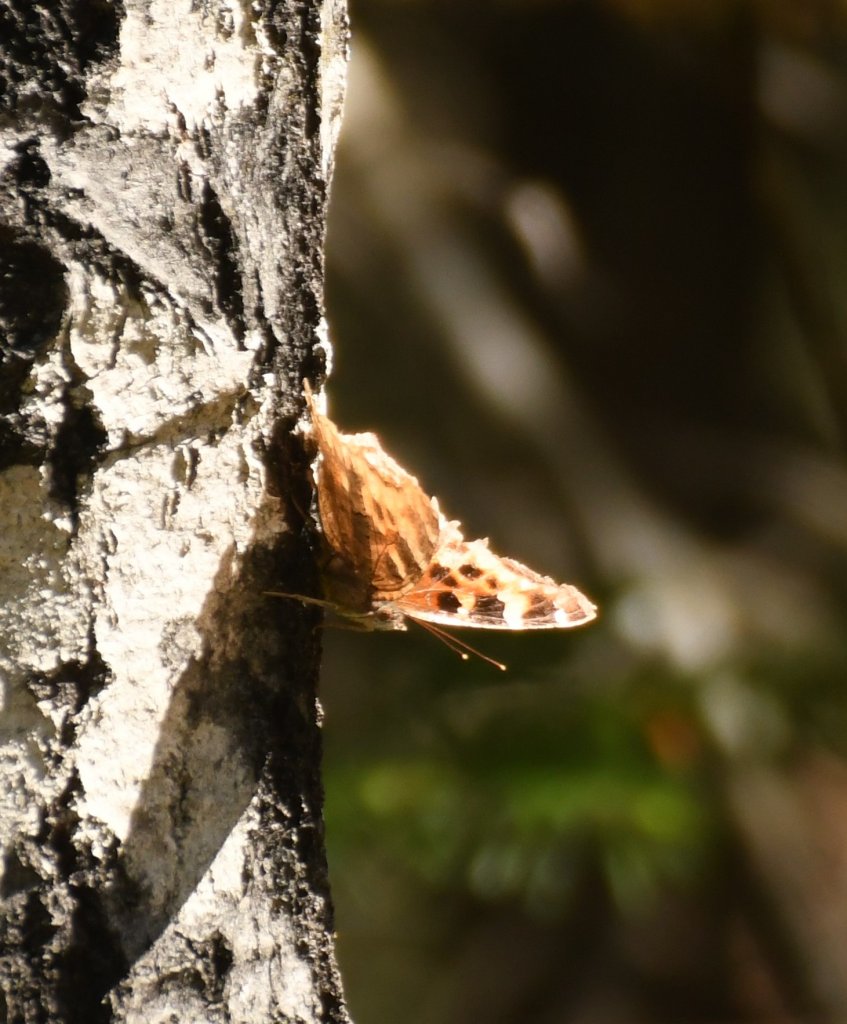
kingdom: Animalia
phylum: Arthropoda
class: Insecta
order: Lepidoptera
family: Nymphalidae
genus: Polygonia
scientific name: Polygonia vaualbum
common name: Compton Tortoiseshell
